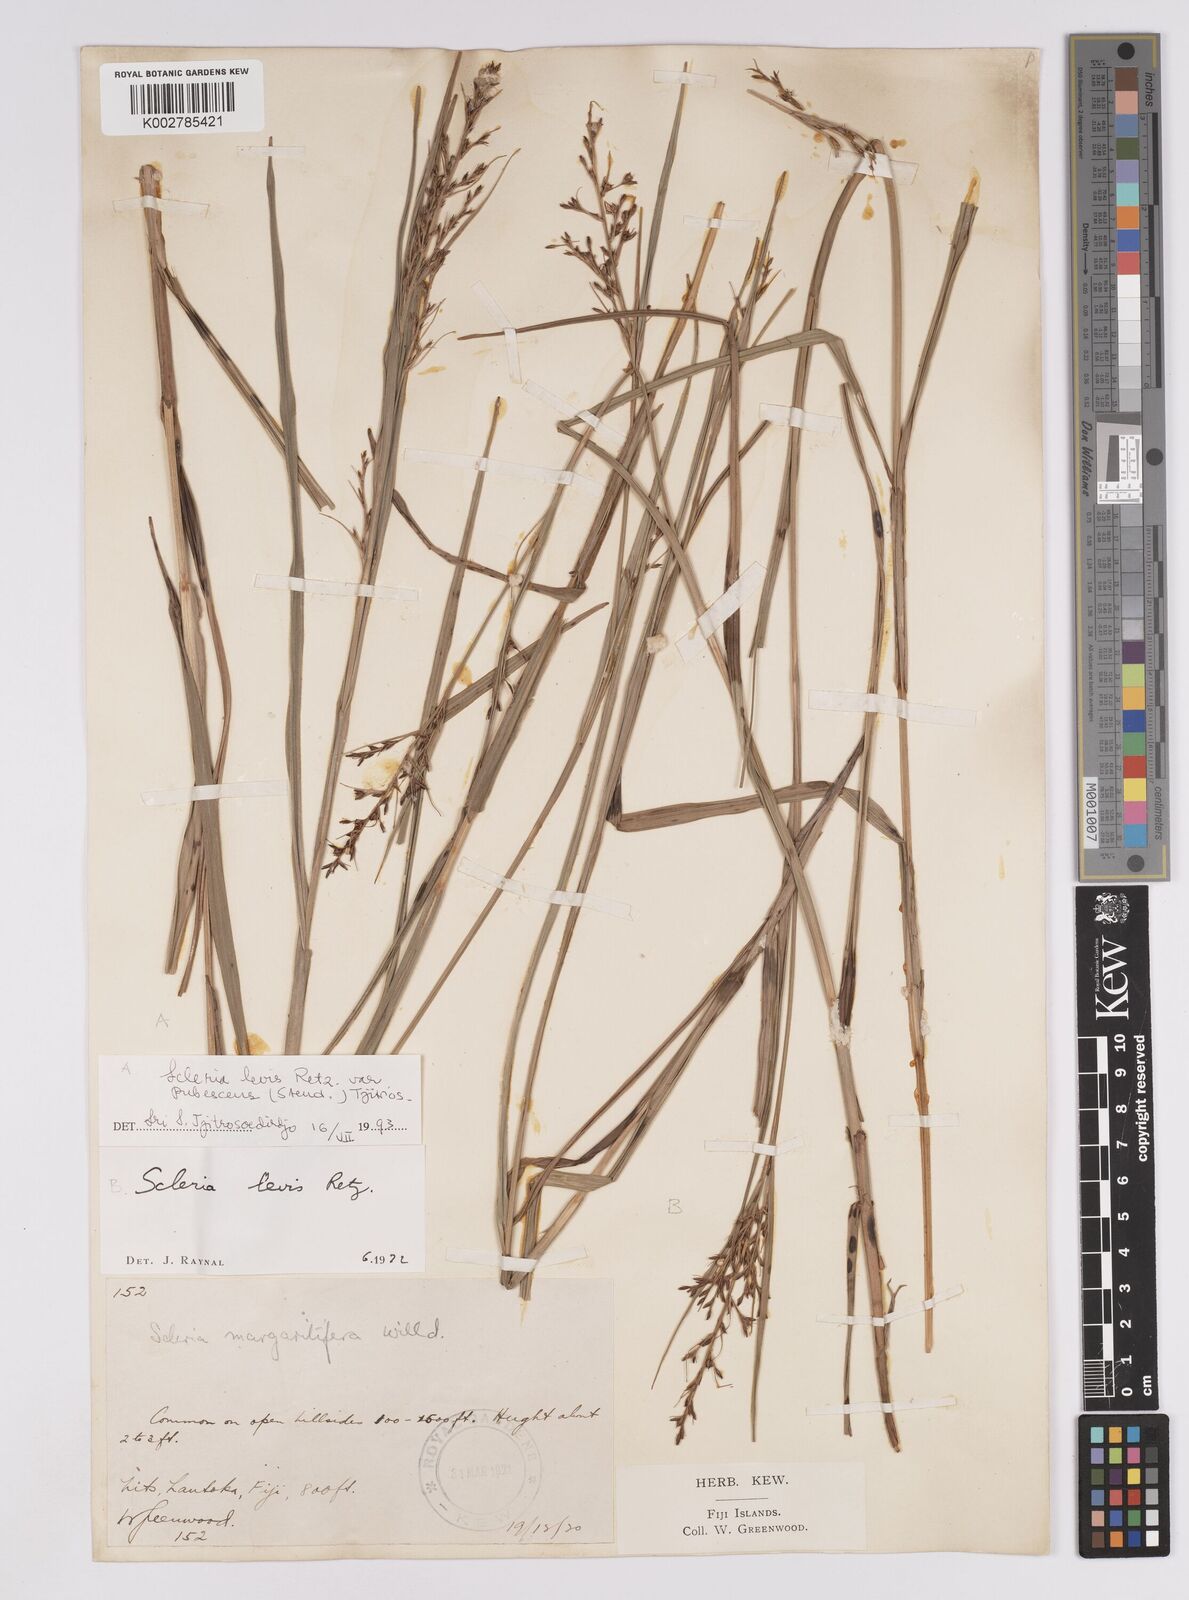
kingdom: Plantae
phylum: Tracheophyta
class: Liliopsida
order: Poales
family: Cyperaceae
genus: Scleria
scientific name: Scleria levis
